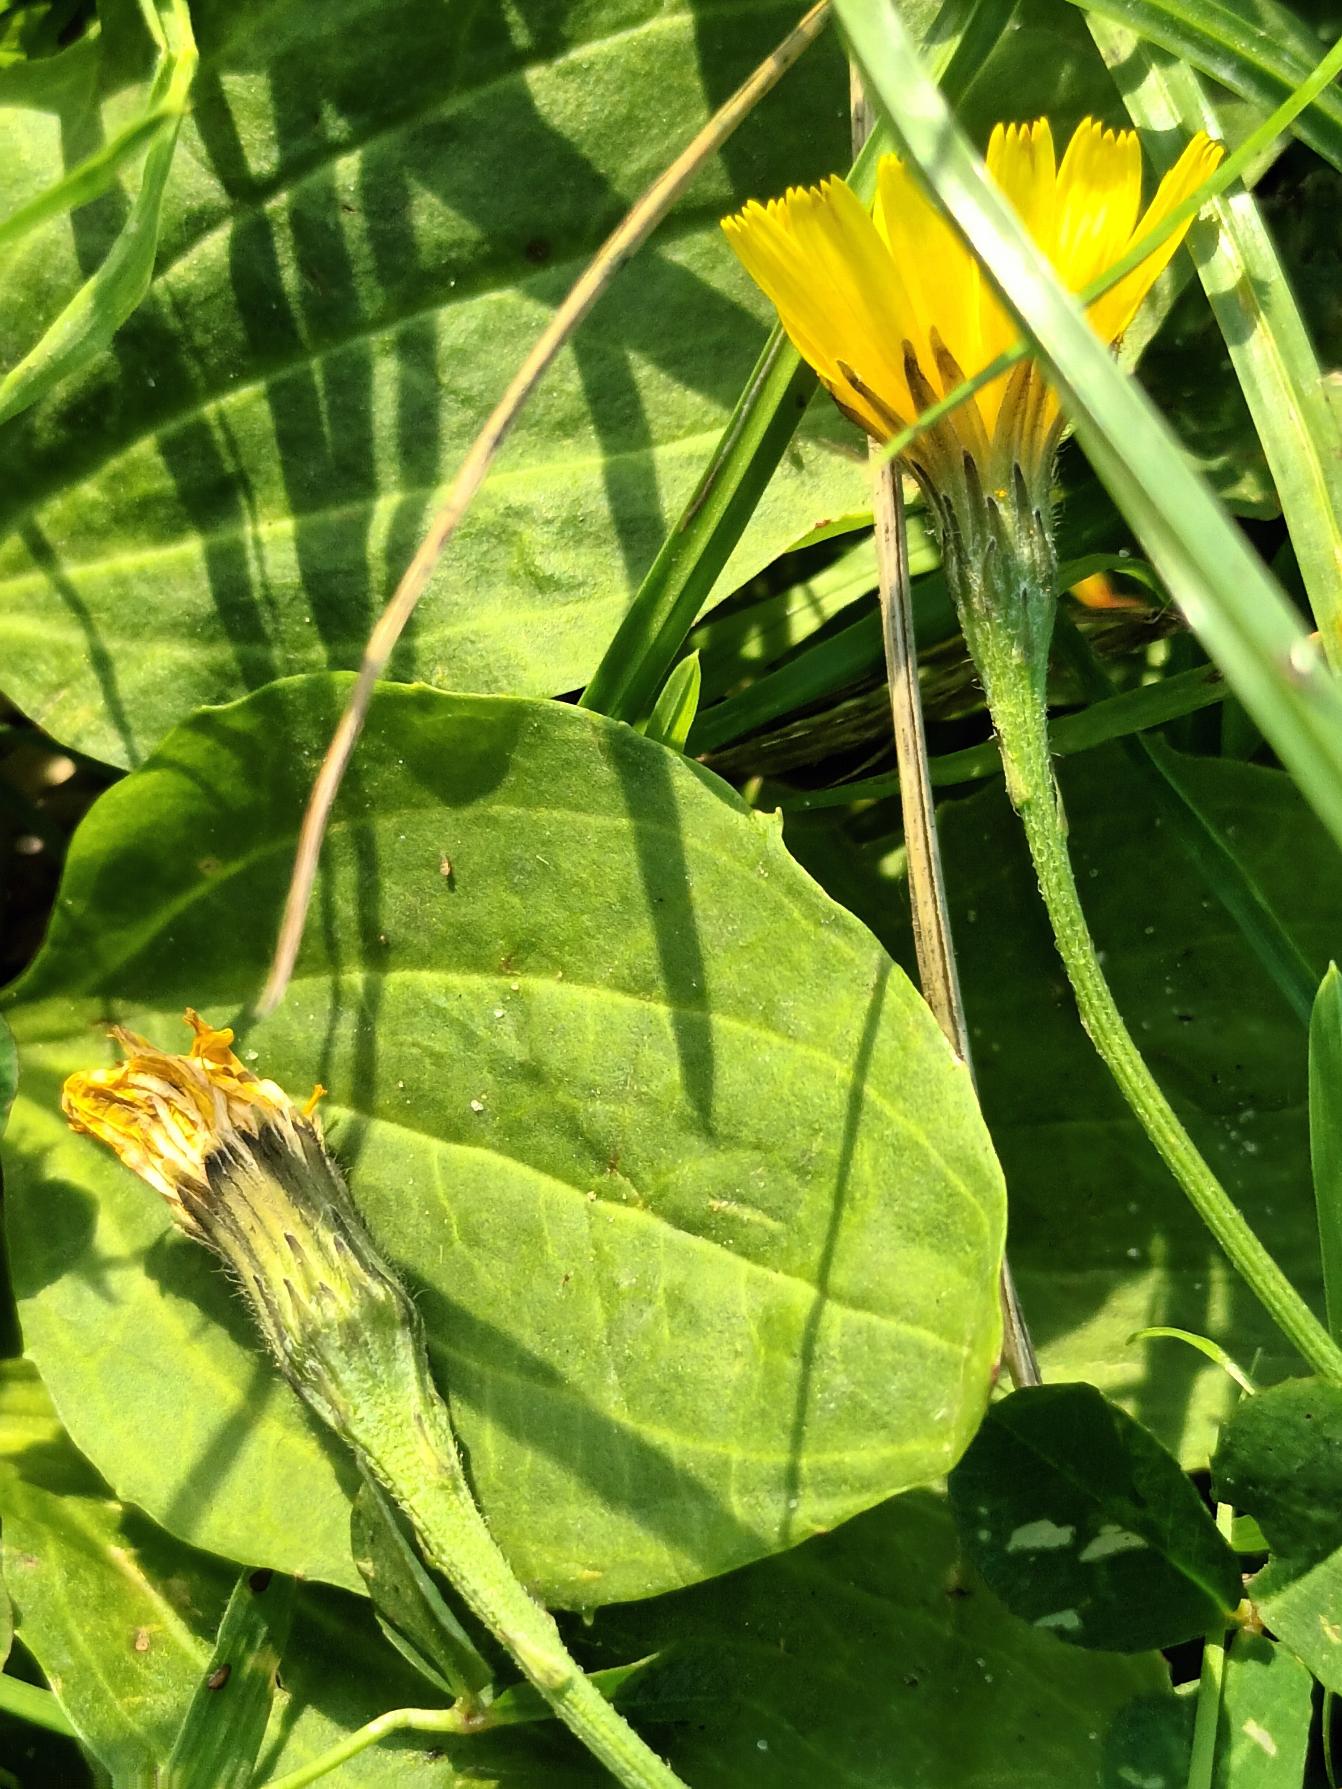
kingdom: Plantae
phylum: Tracheophyta
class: Magnoliopsida
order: Asterales
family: Asteraceae
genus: Scorzoneroides
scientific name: Scorzoneroides autumnalis
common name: Høst-borst
